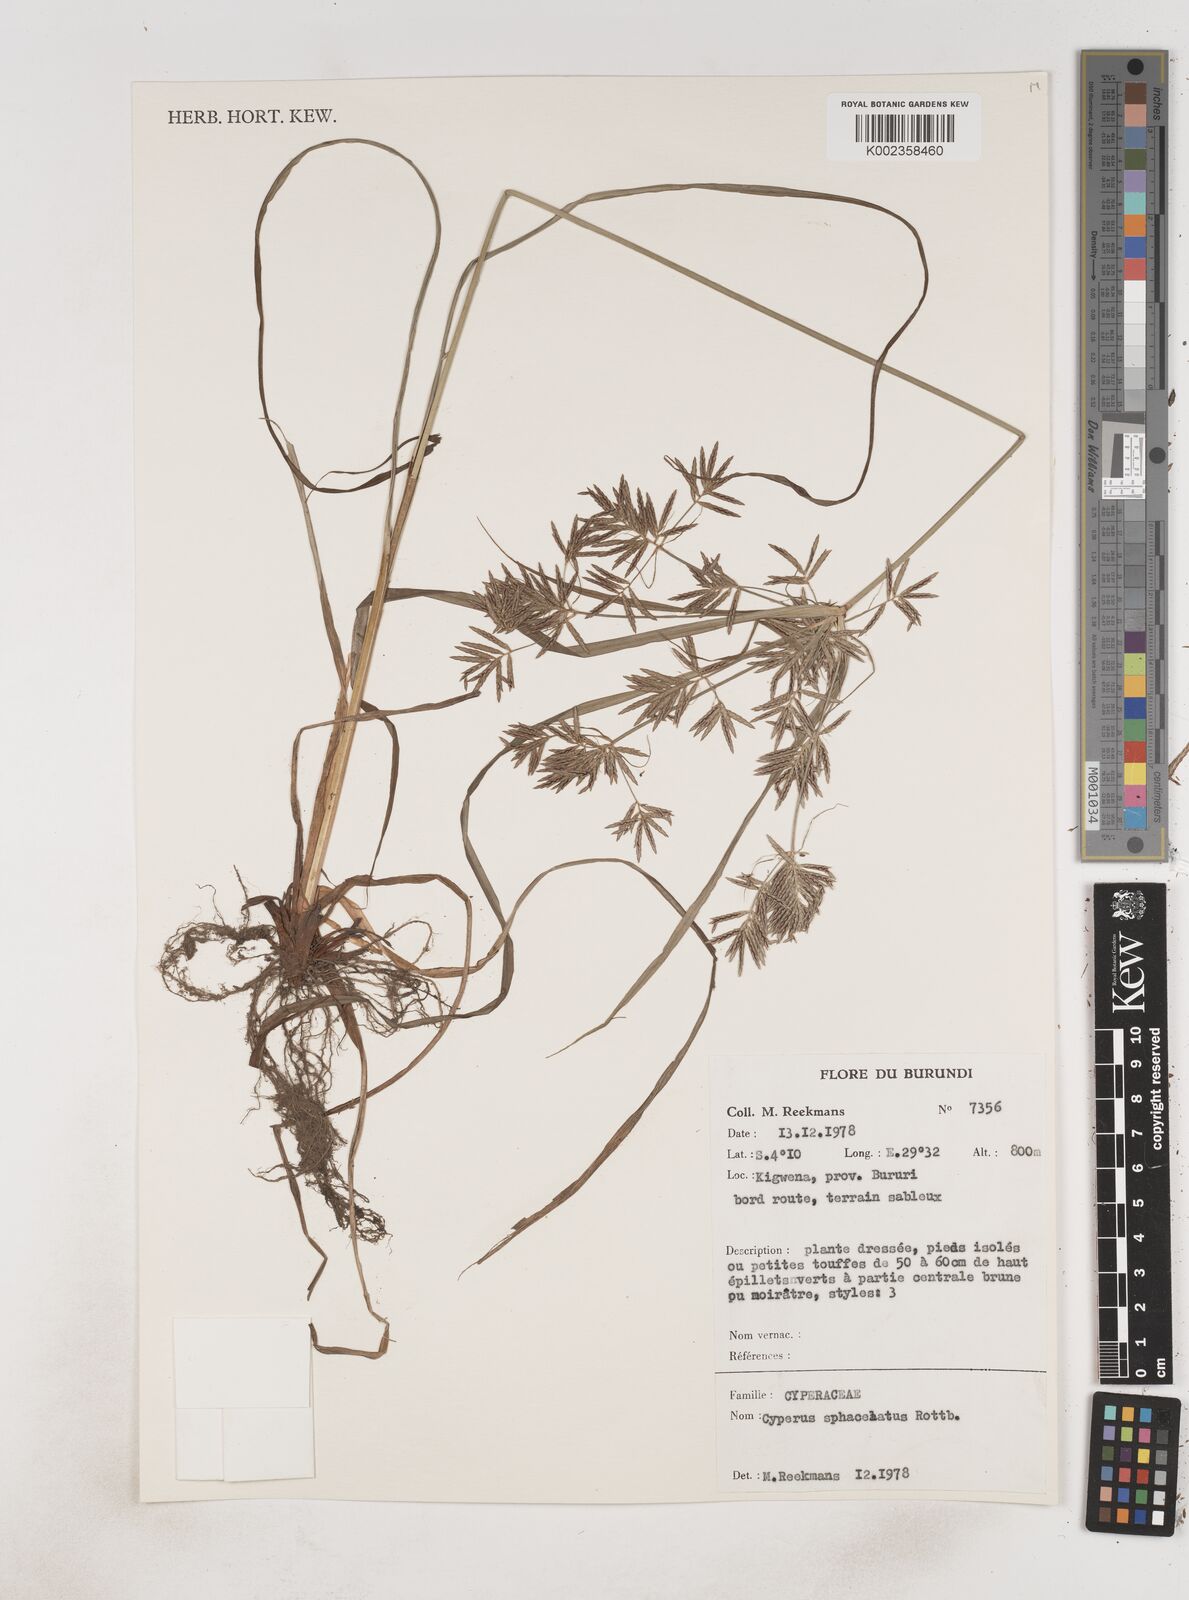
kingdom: Plantae
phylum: Tracheophyta
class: Liliopsida
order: Poales
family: Cyperaceae
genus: Cyperus
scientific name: Cyperus sphacelatus
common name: Roadside flatsedge
